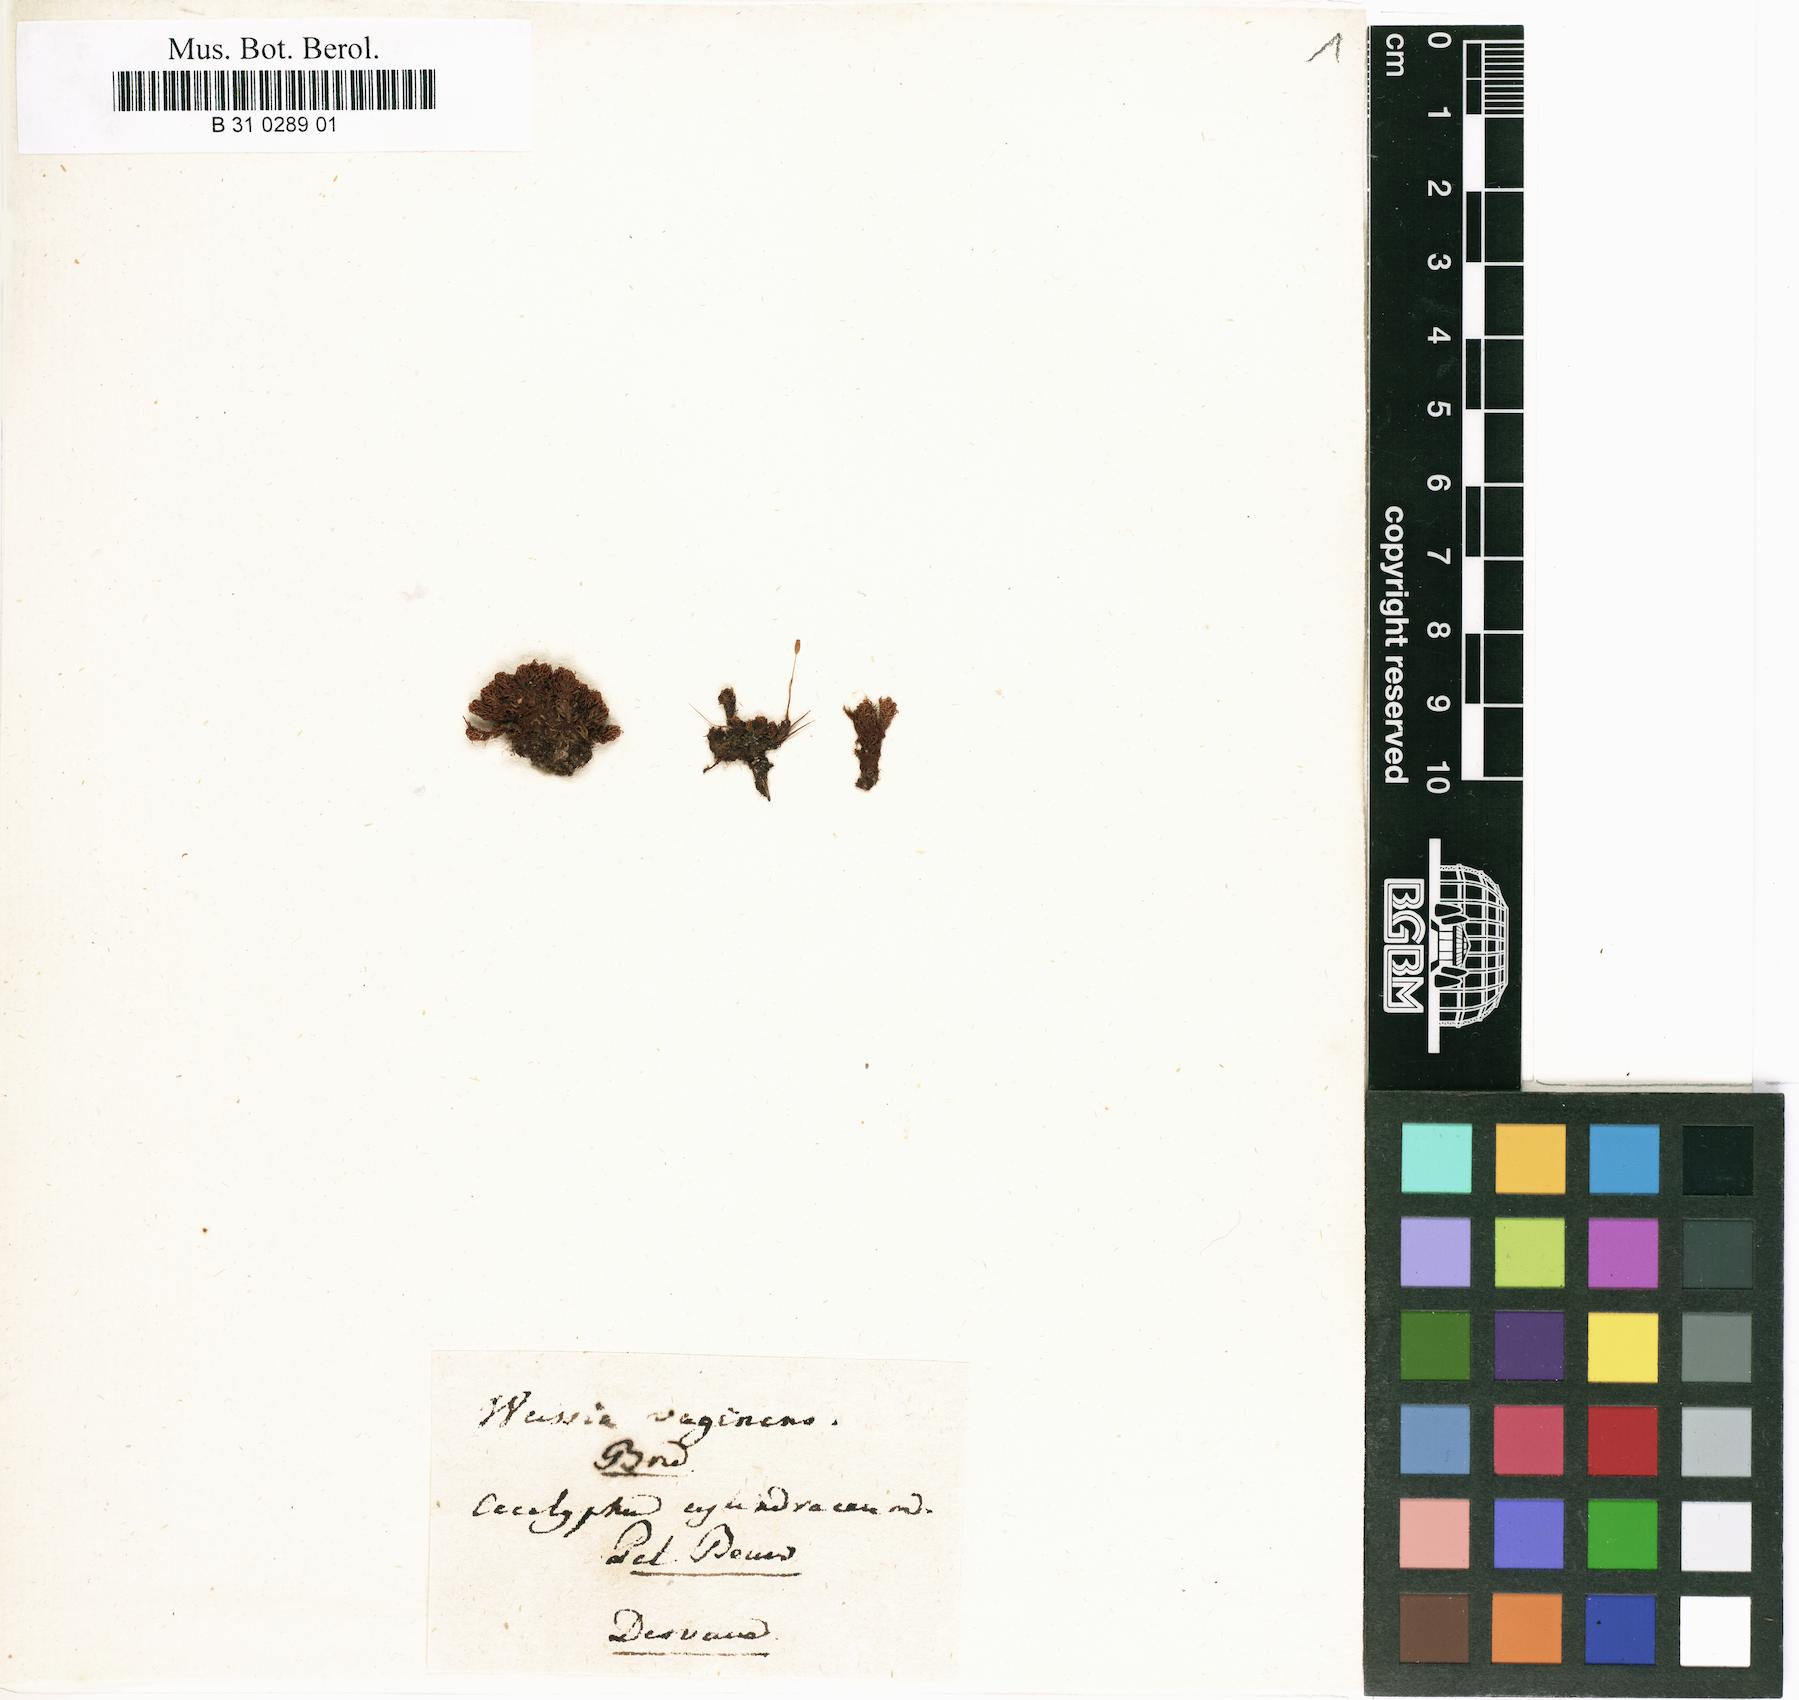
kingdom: Plantae
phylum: Bryophyta
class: Bryopsida
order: Dicranales
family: Dicranaceae
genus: Holomitrium
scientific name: Holomitrium cylindraceum
